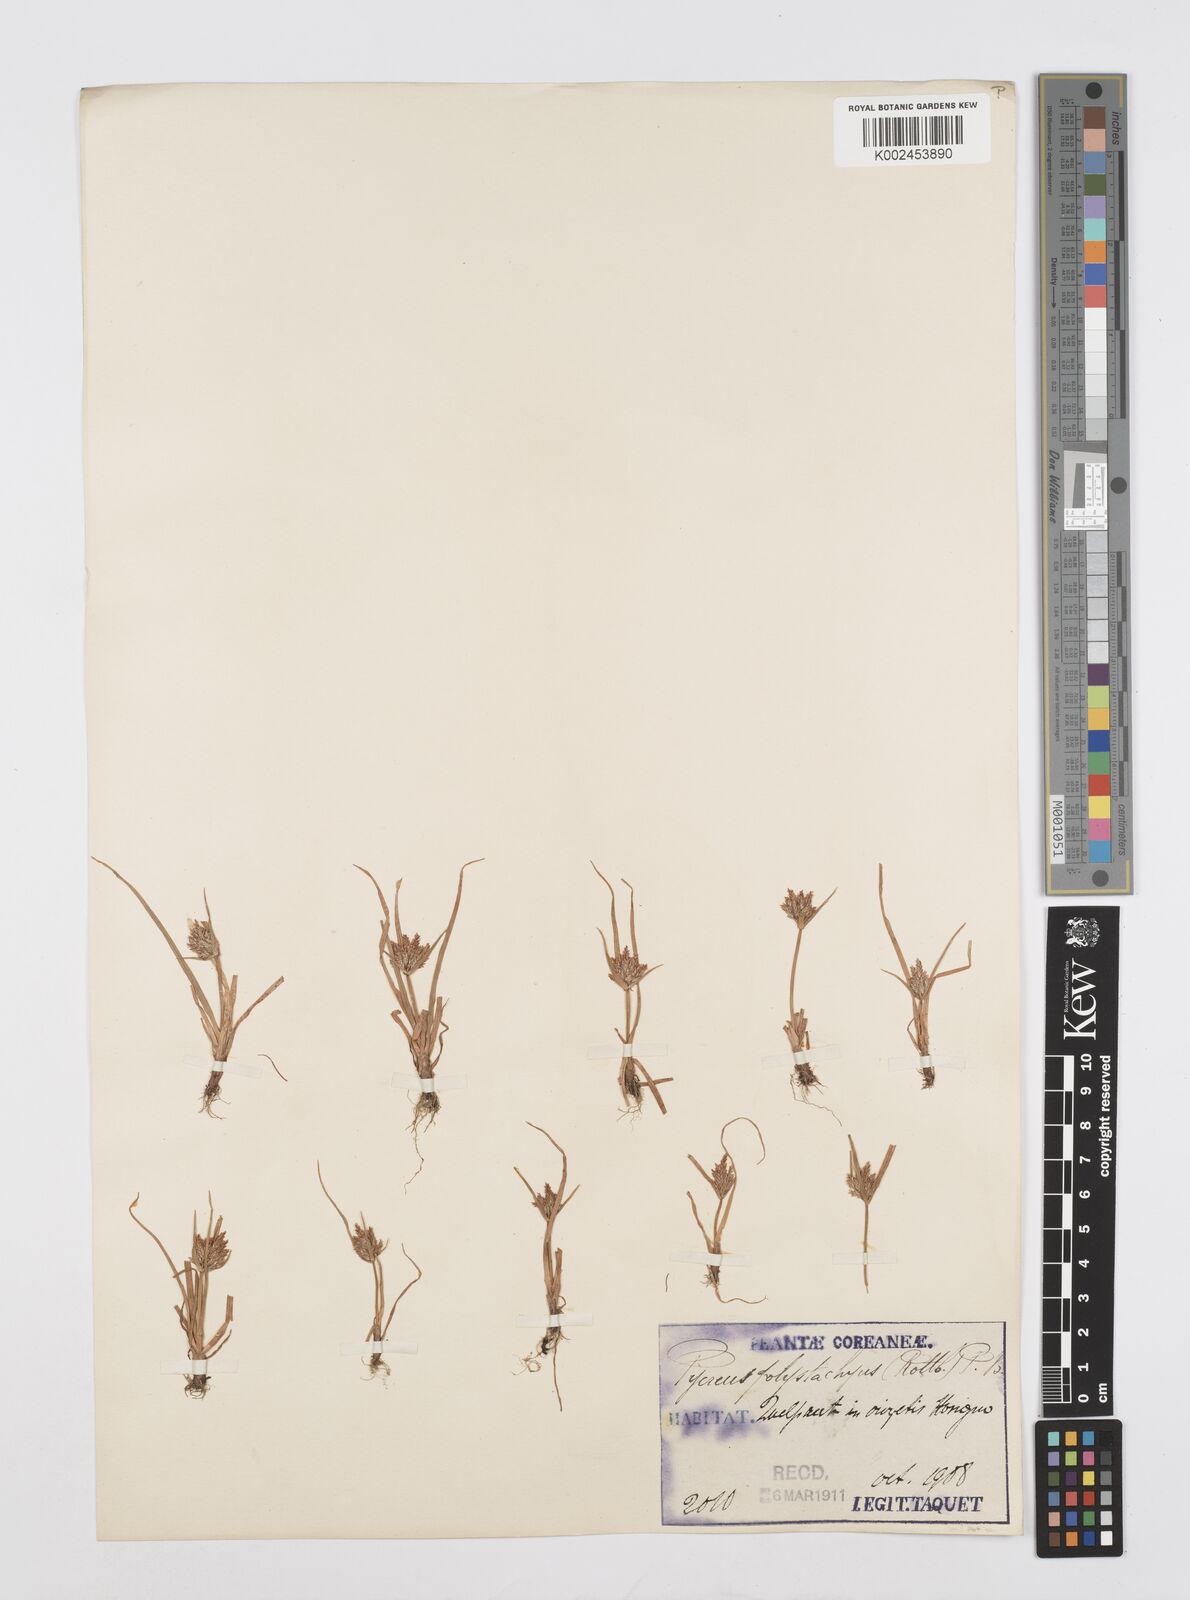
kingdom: Plantae
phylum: Tracheophyta
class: Liliopsida
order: Poales
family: Cyperaceae
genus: Cyperus
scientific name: Cyperus polystachyos
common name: Bunchy flat sedge
